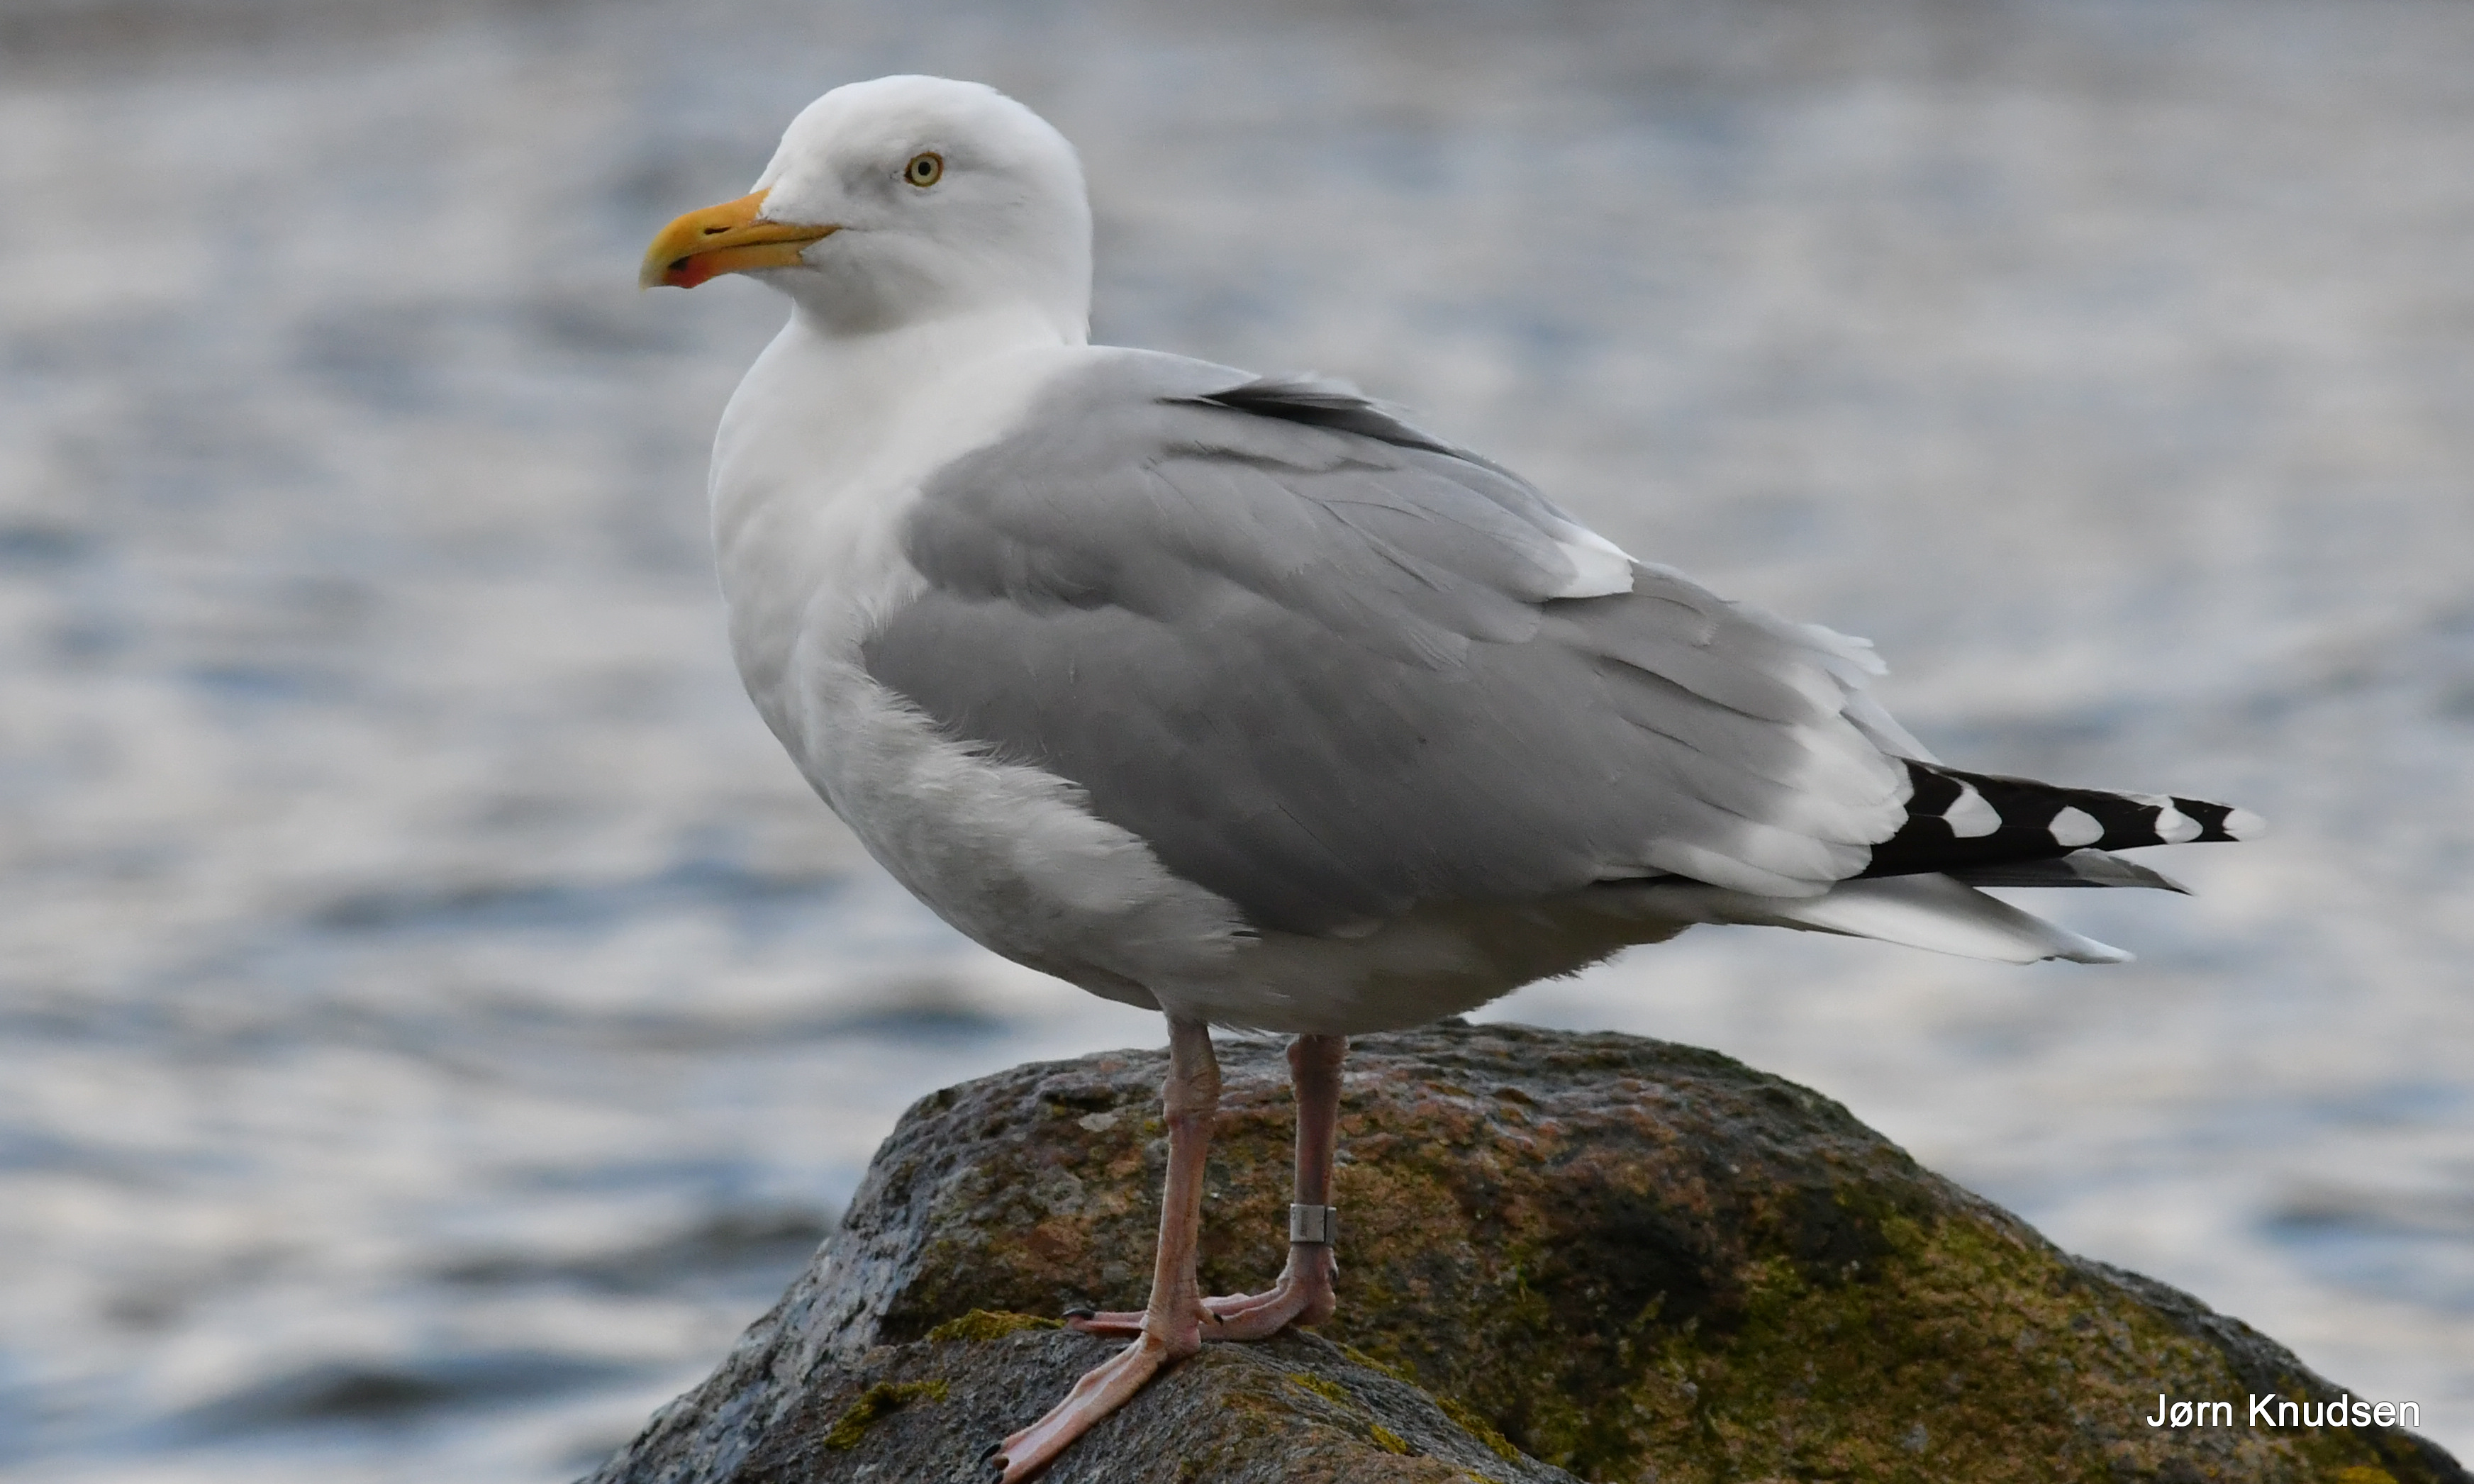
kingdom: Animalia
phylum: Chordata
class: Aves
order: Charadriiformes
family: Laridae
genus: Larus
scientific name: Larus argentatus
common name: Sølvmåge
